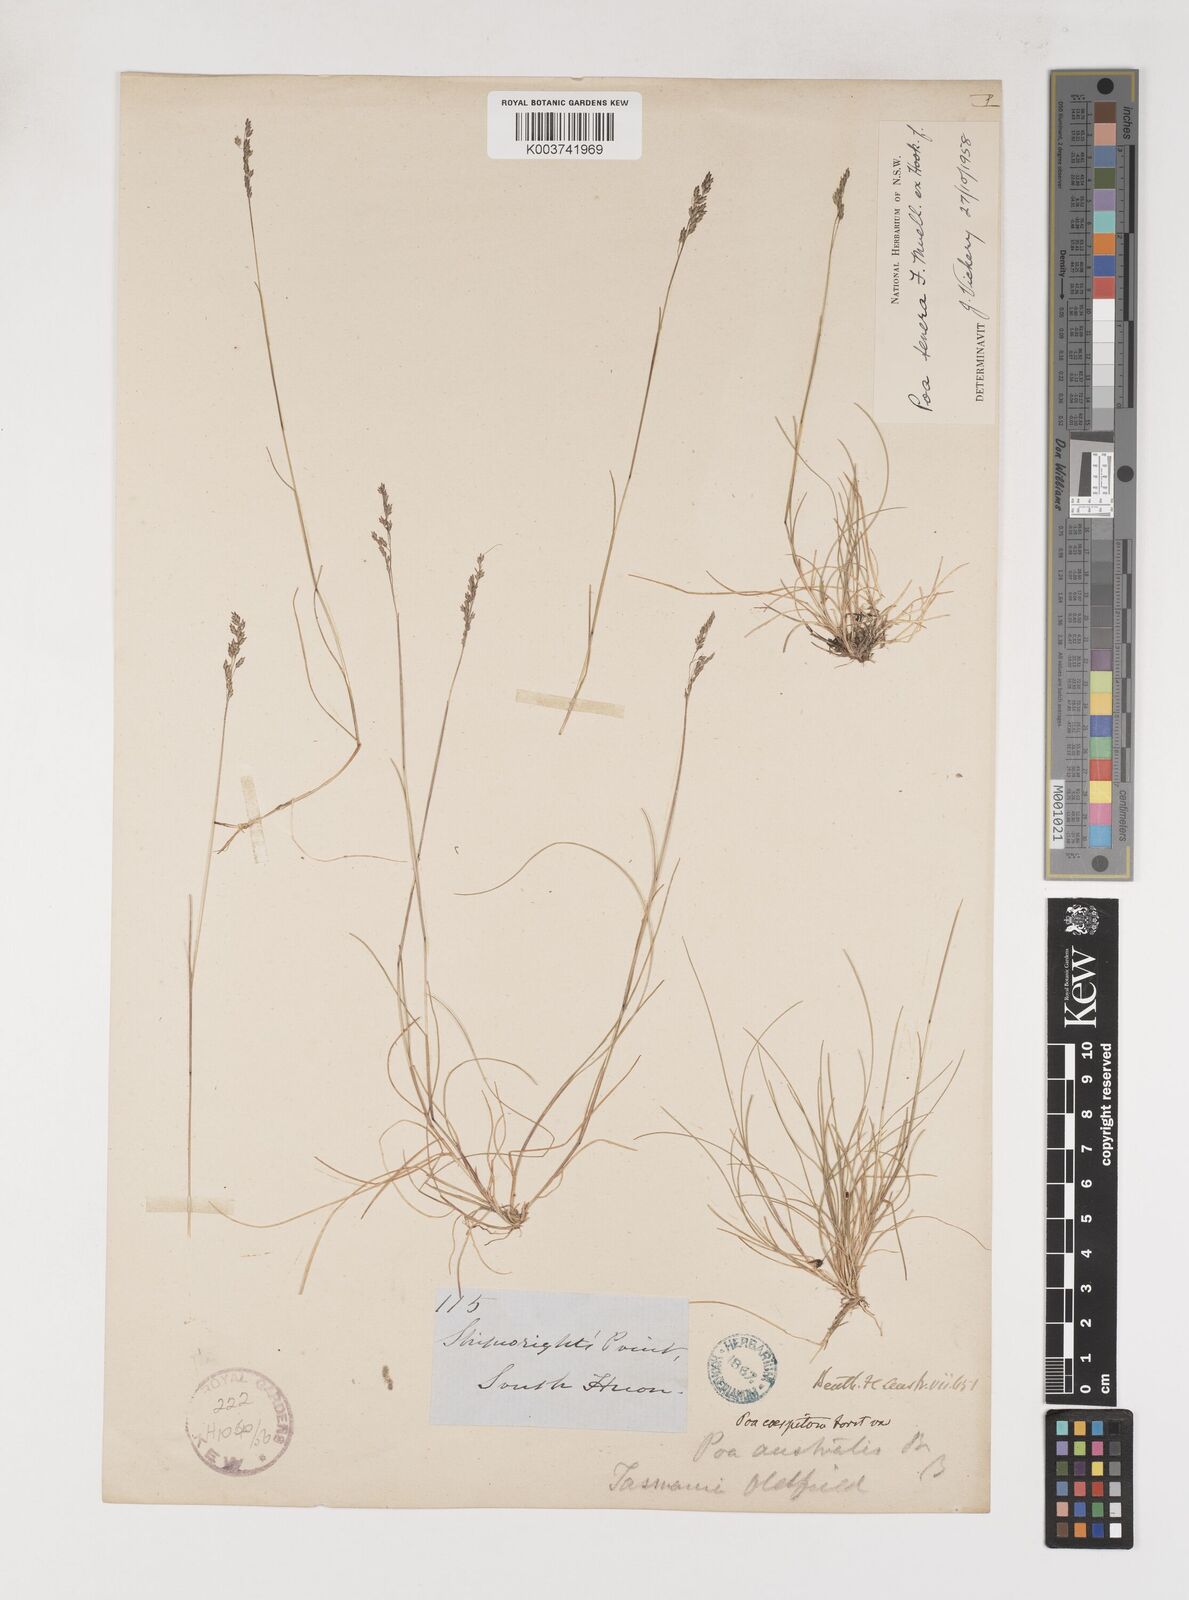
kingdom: Plantae
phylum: Tracheophyta
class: Liliopsida
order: Poales
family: Poaceae
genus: Poa
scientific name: Poa tenera
